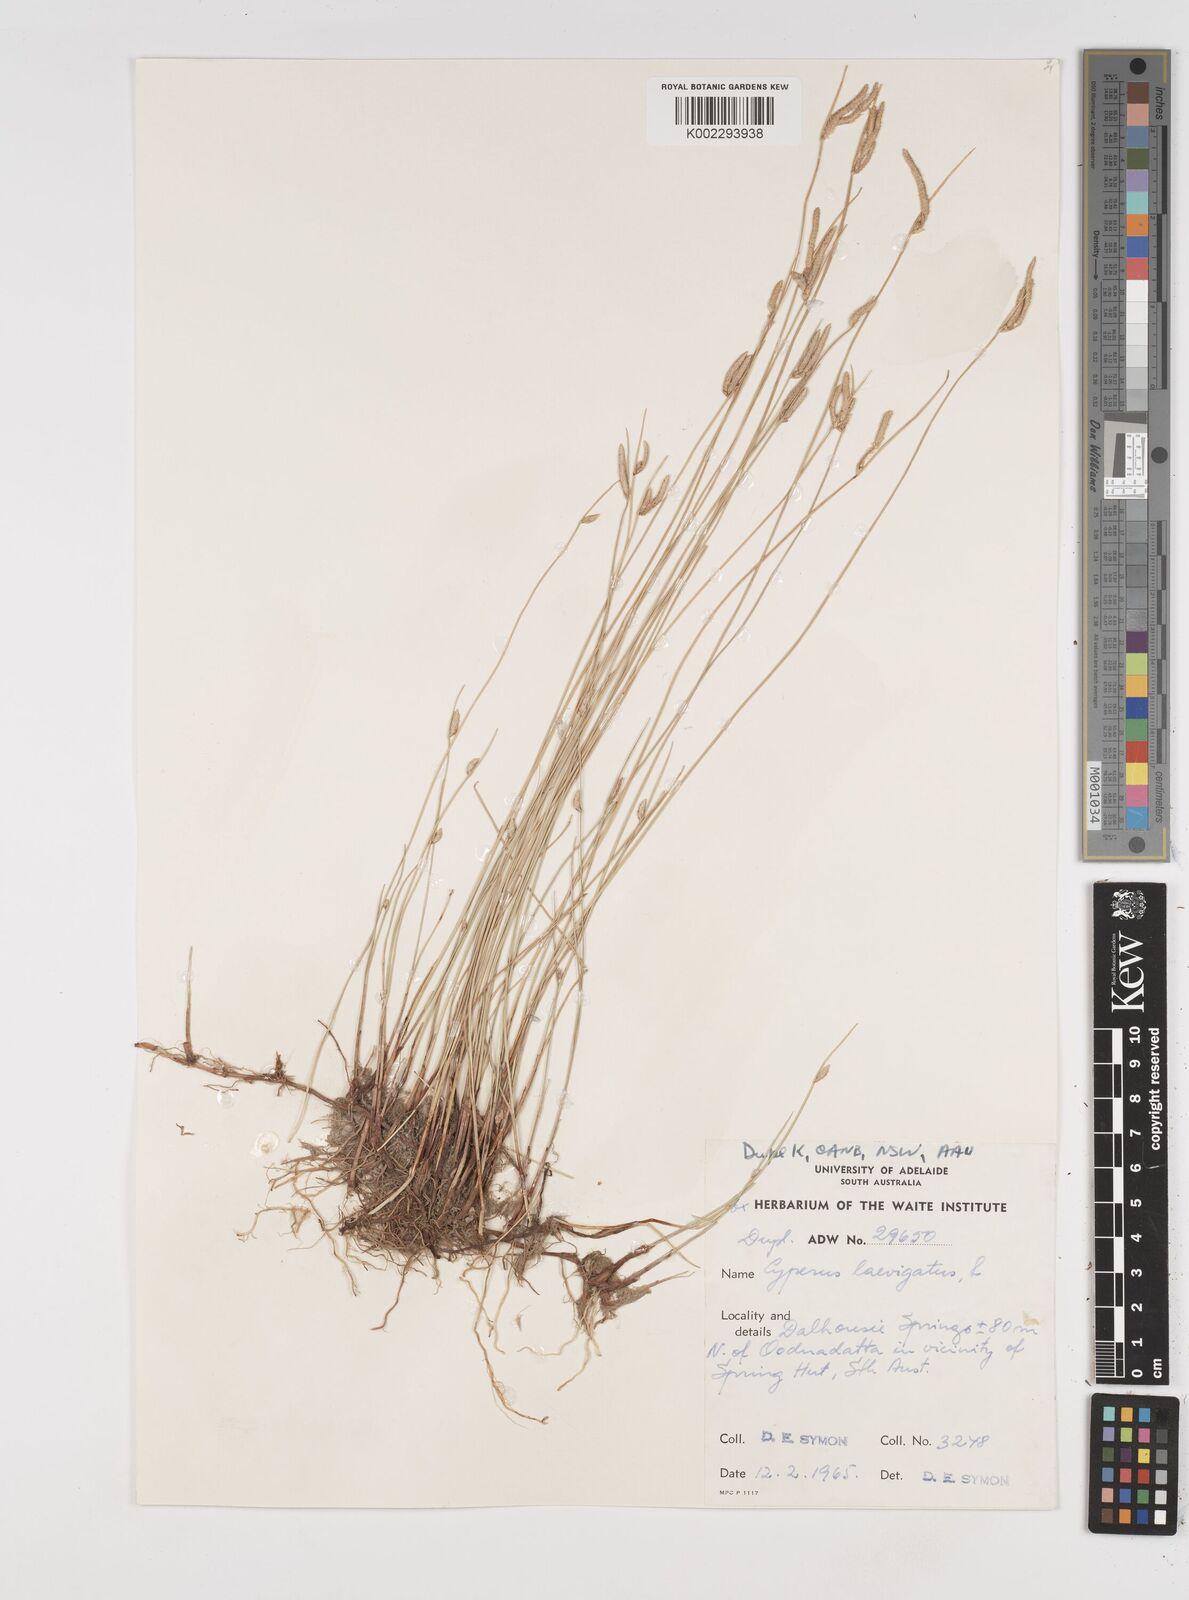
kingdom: Plantae
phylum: Tracheophyta
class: Liliopsida
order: Poales
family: Cyperaceae
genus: Cyperus
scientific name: Cyperus laevigatus
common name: Smooth flat sedge
